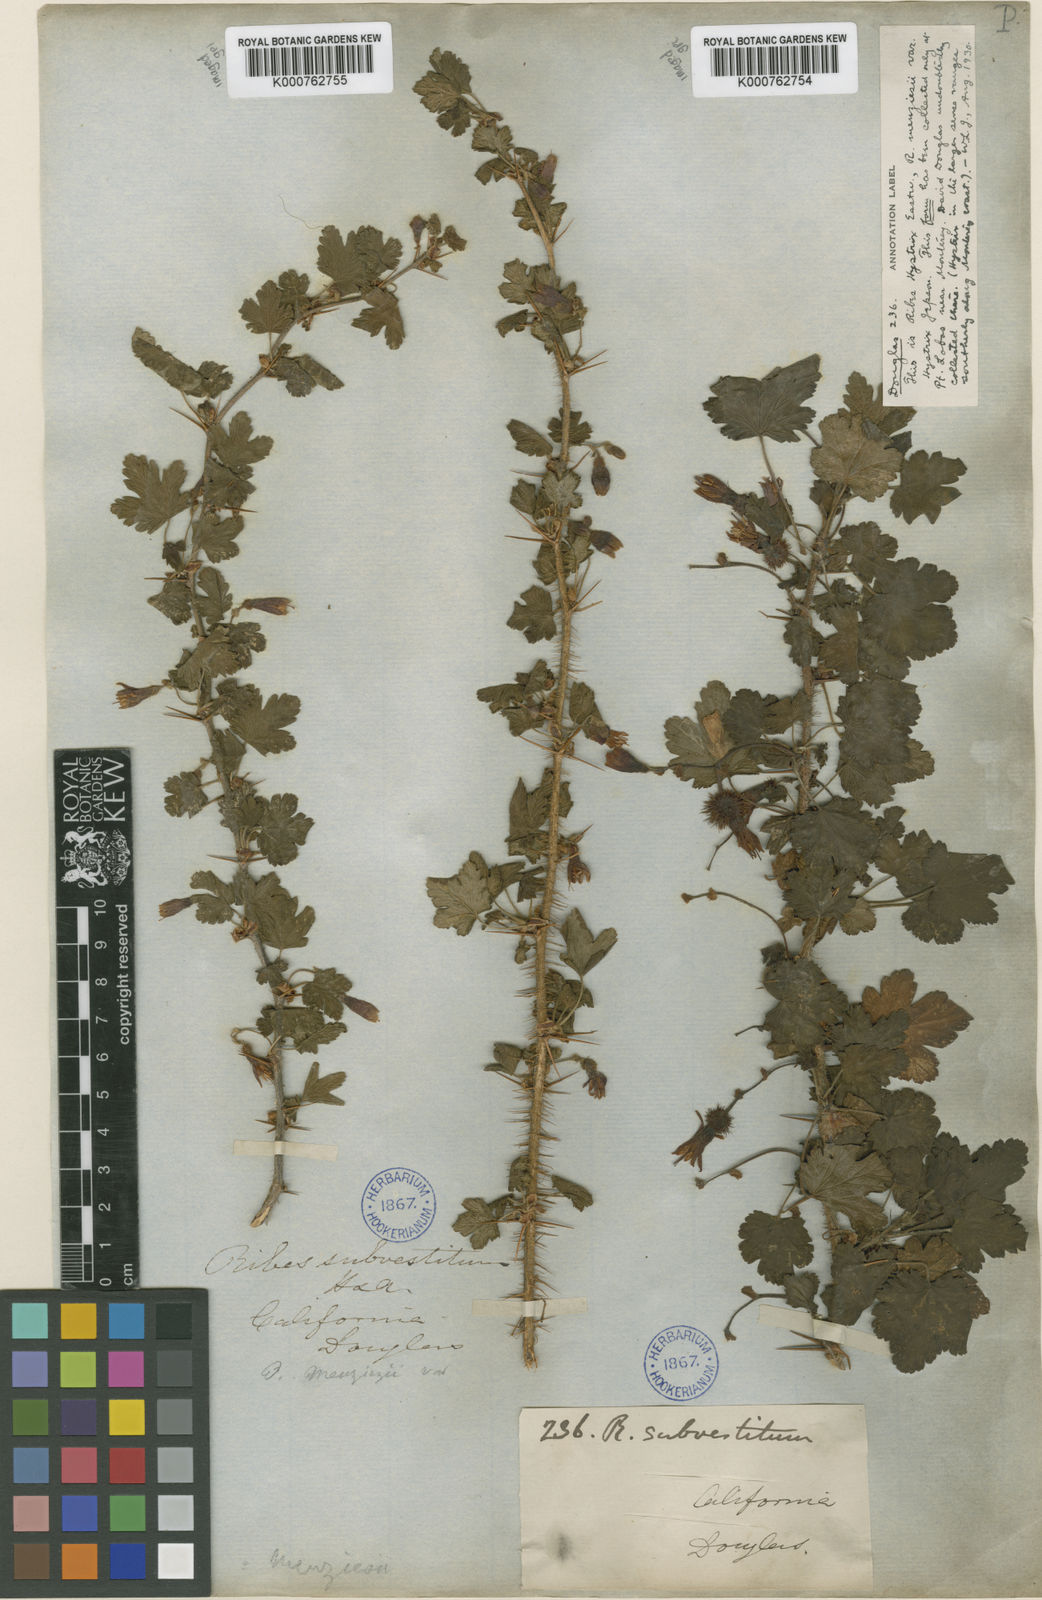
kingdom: Plantae
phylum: Tracheophyta
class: Magnoliopsida
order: Saxifragales
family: Grossulariaceae
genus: Ribes
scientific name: Ribes menziesii
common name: Canyon gooseberry
